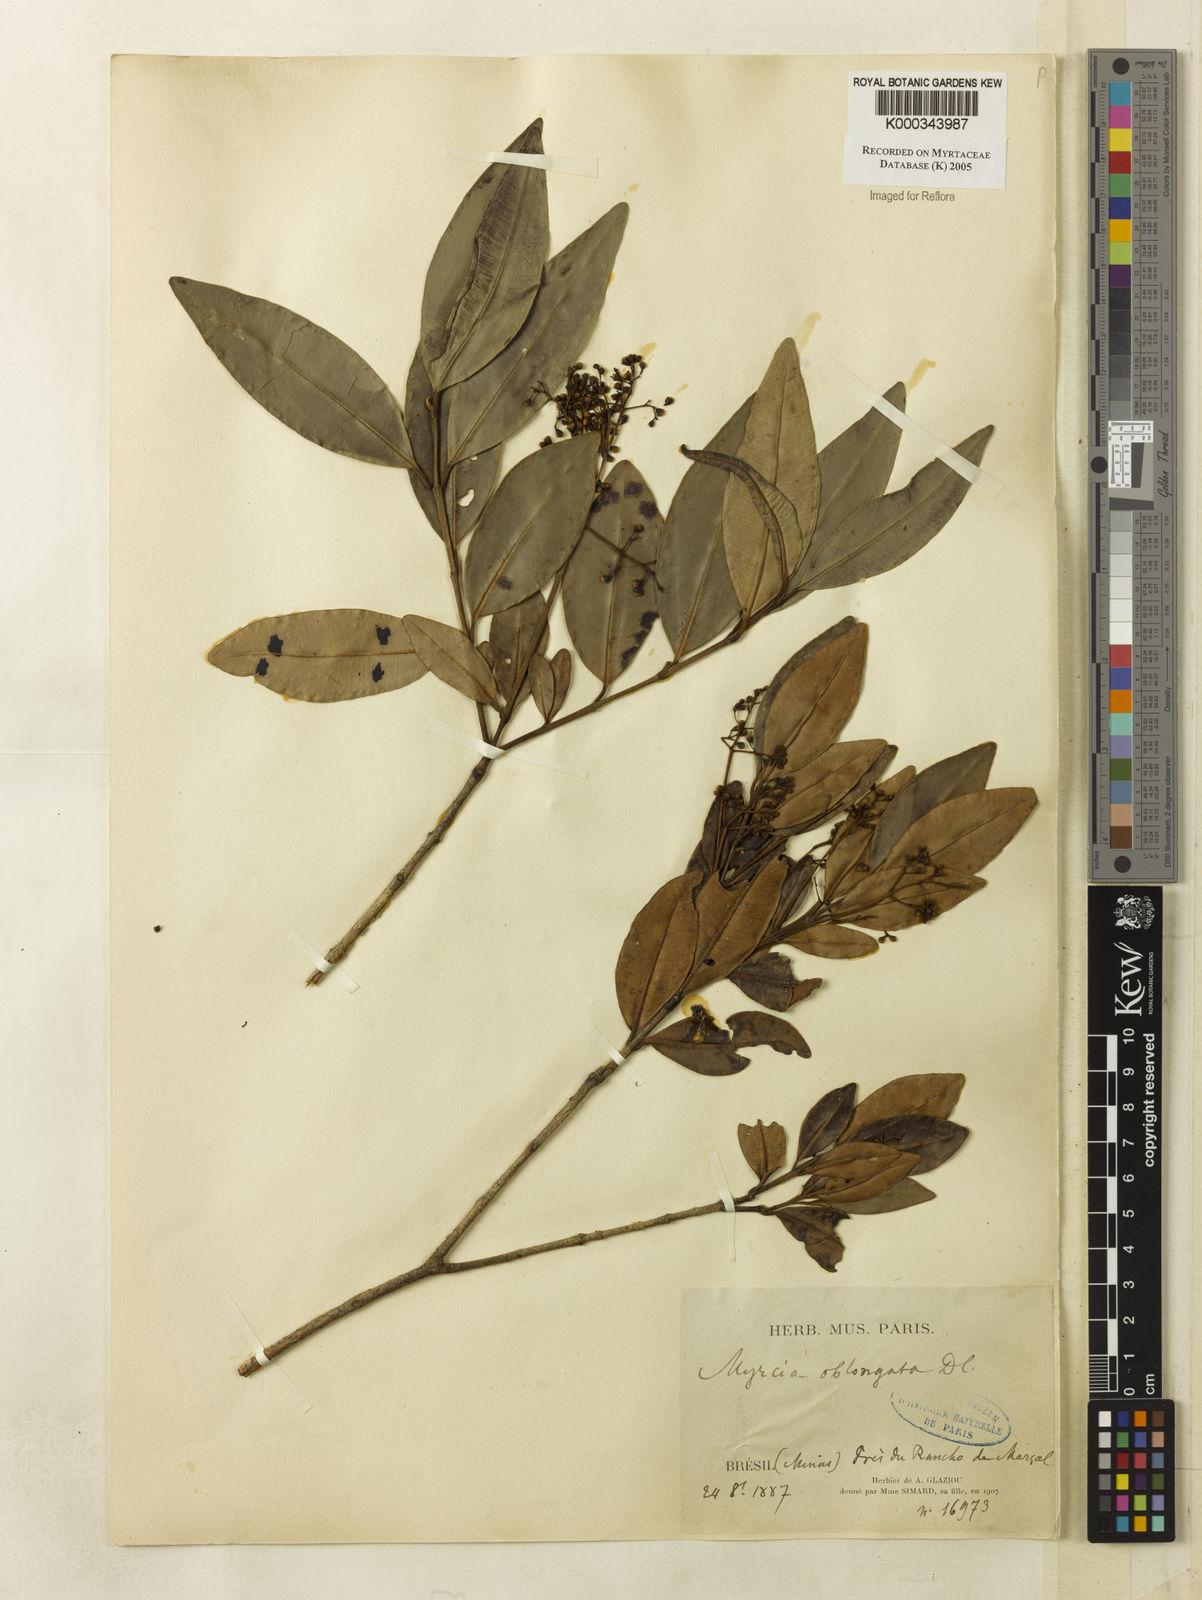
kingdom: Plantae
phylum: Tracheophyta
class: Magnoliopsida
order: Myrtales
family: Myrtaceae
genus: Myrcia
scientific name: Myrcia oblongata
